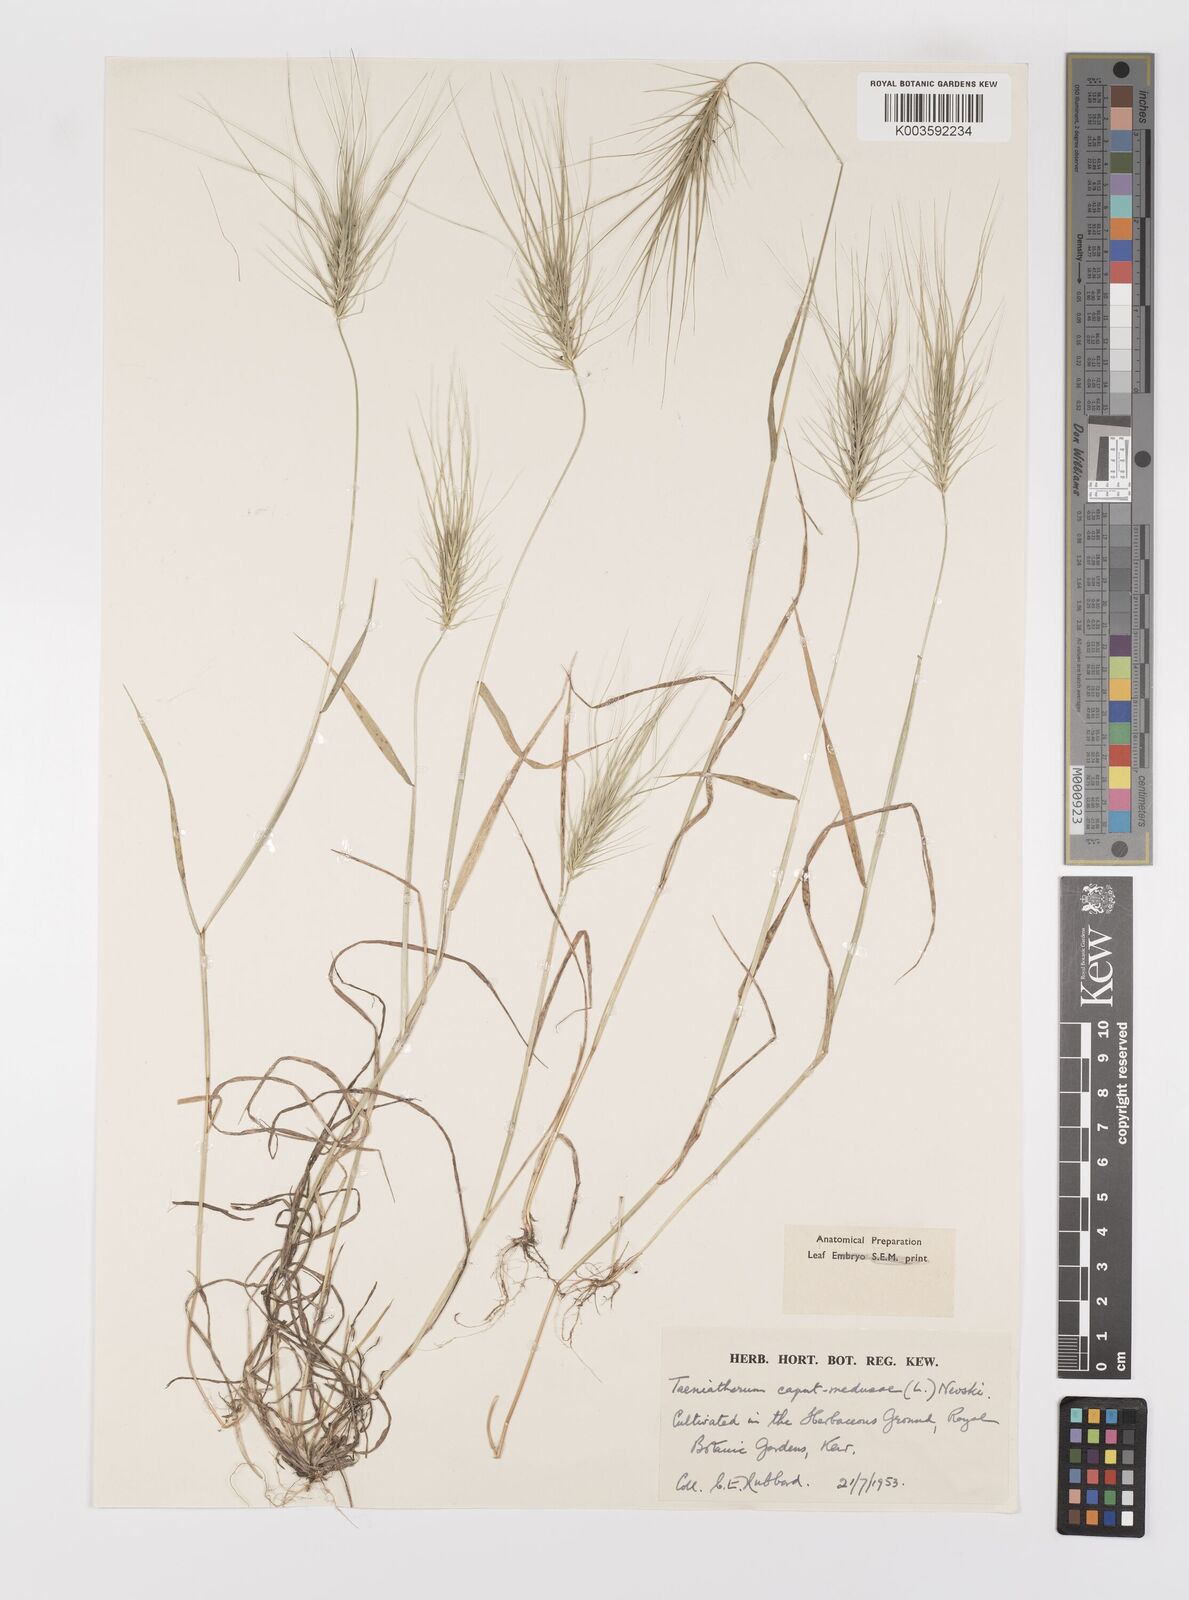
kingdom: Plantae
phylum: Tracheophyta
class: Liliopsida
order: Poales
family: Poaceae
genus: Taeniatherum
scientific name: Taeniatherum caput-medusae
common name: Medusahead
